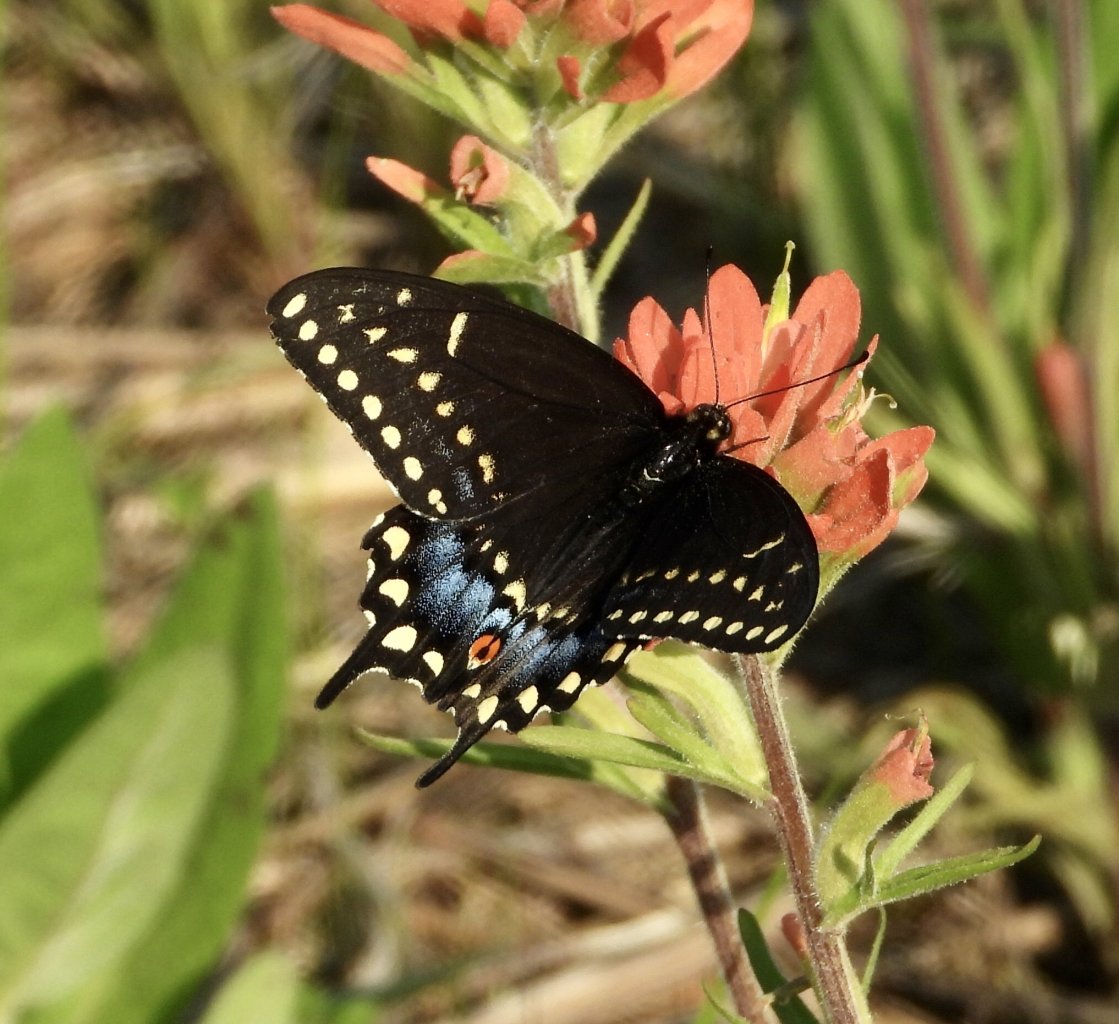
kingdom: Animalia
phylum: Arthropoda
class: Insecta
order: Lepidoptera
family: Papilionidae
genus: Papilio
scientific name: Papilio polyxenes
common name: Black Swallowtail
